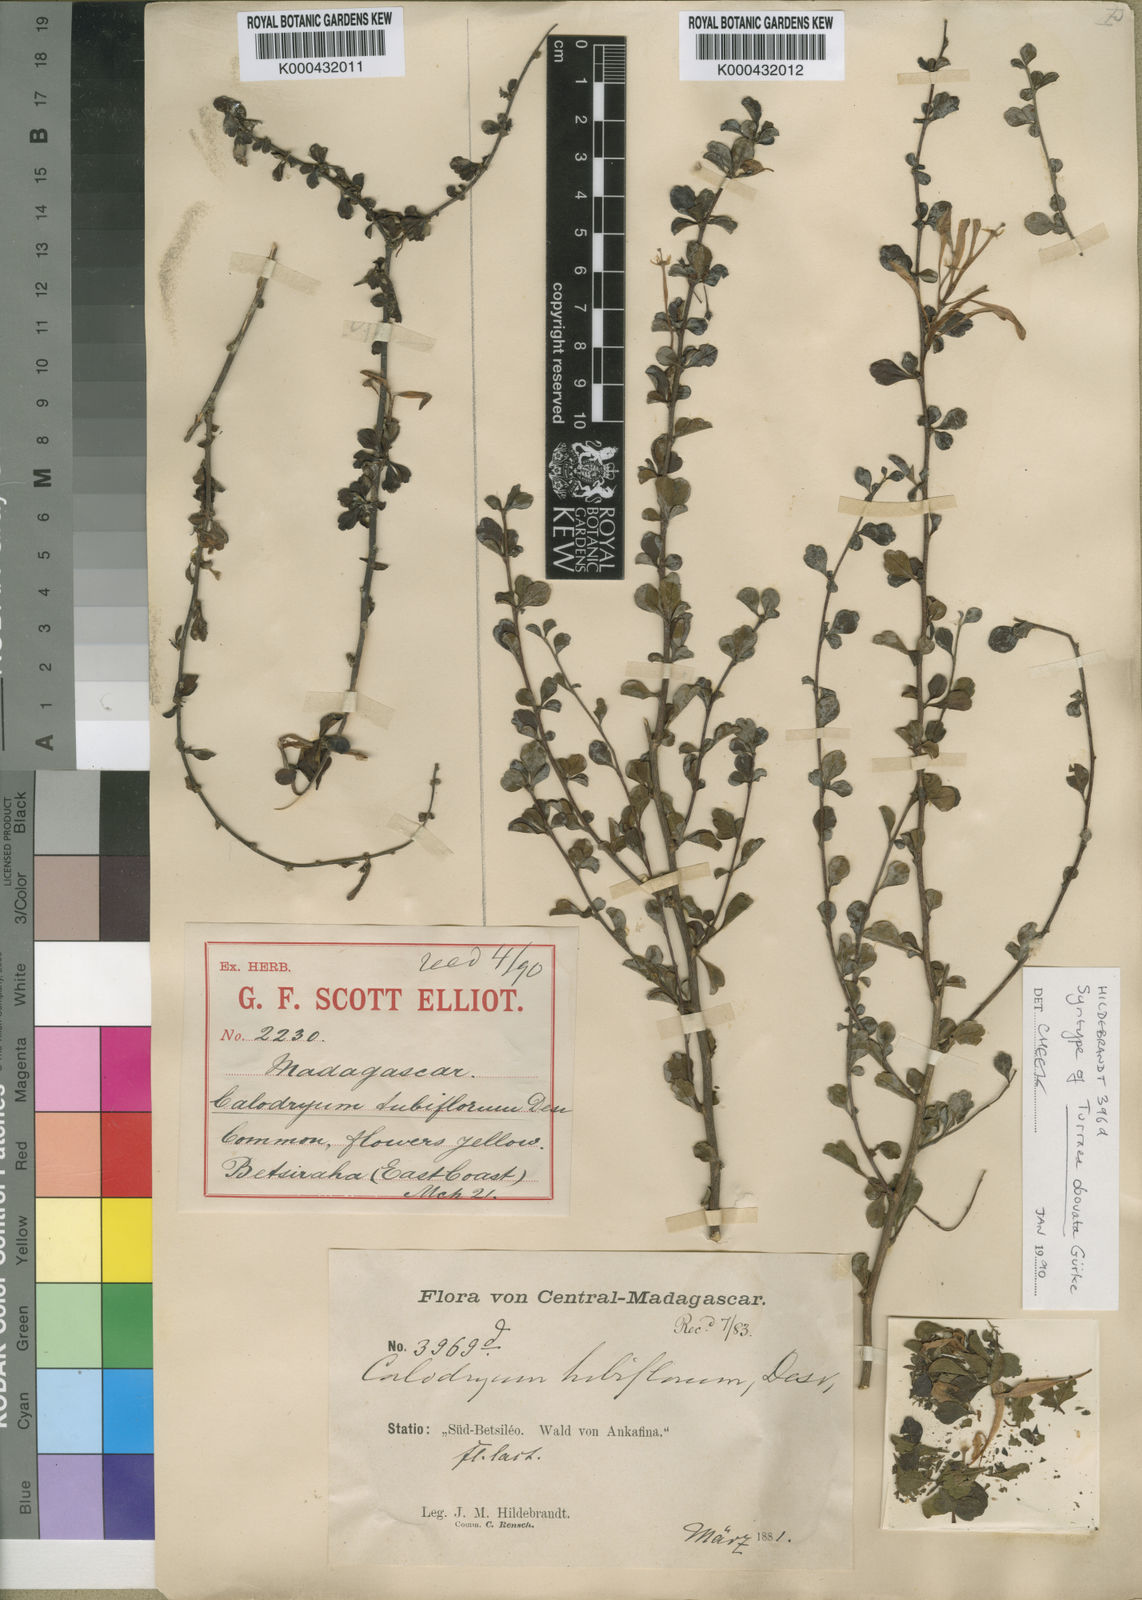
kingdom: Plantae
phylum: Tracheophyta
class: Magnoliopsida
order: Sapindales
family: Meliaceae
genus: Turraea
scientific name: Turraea
